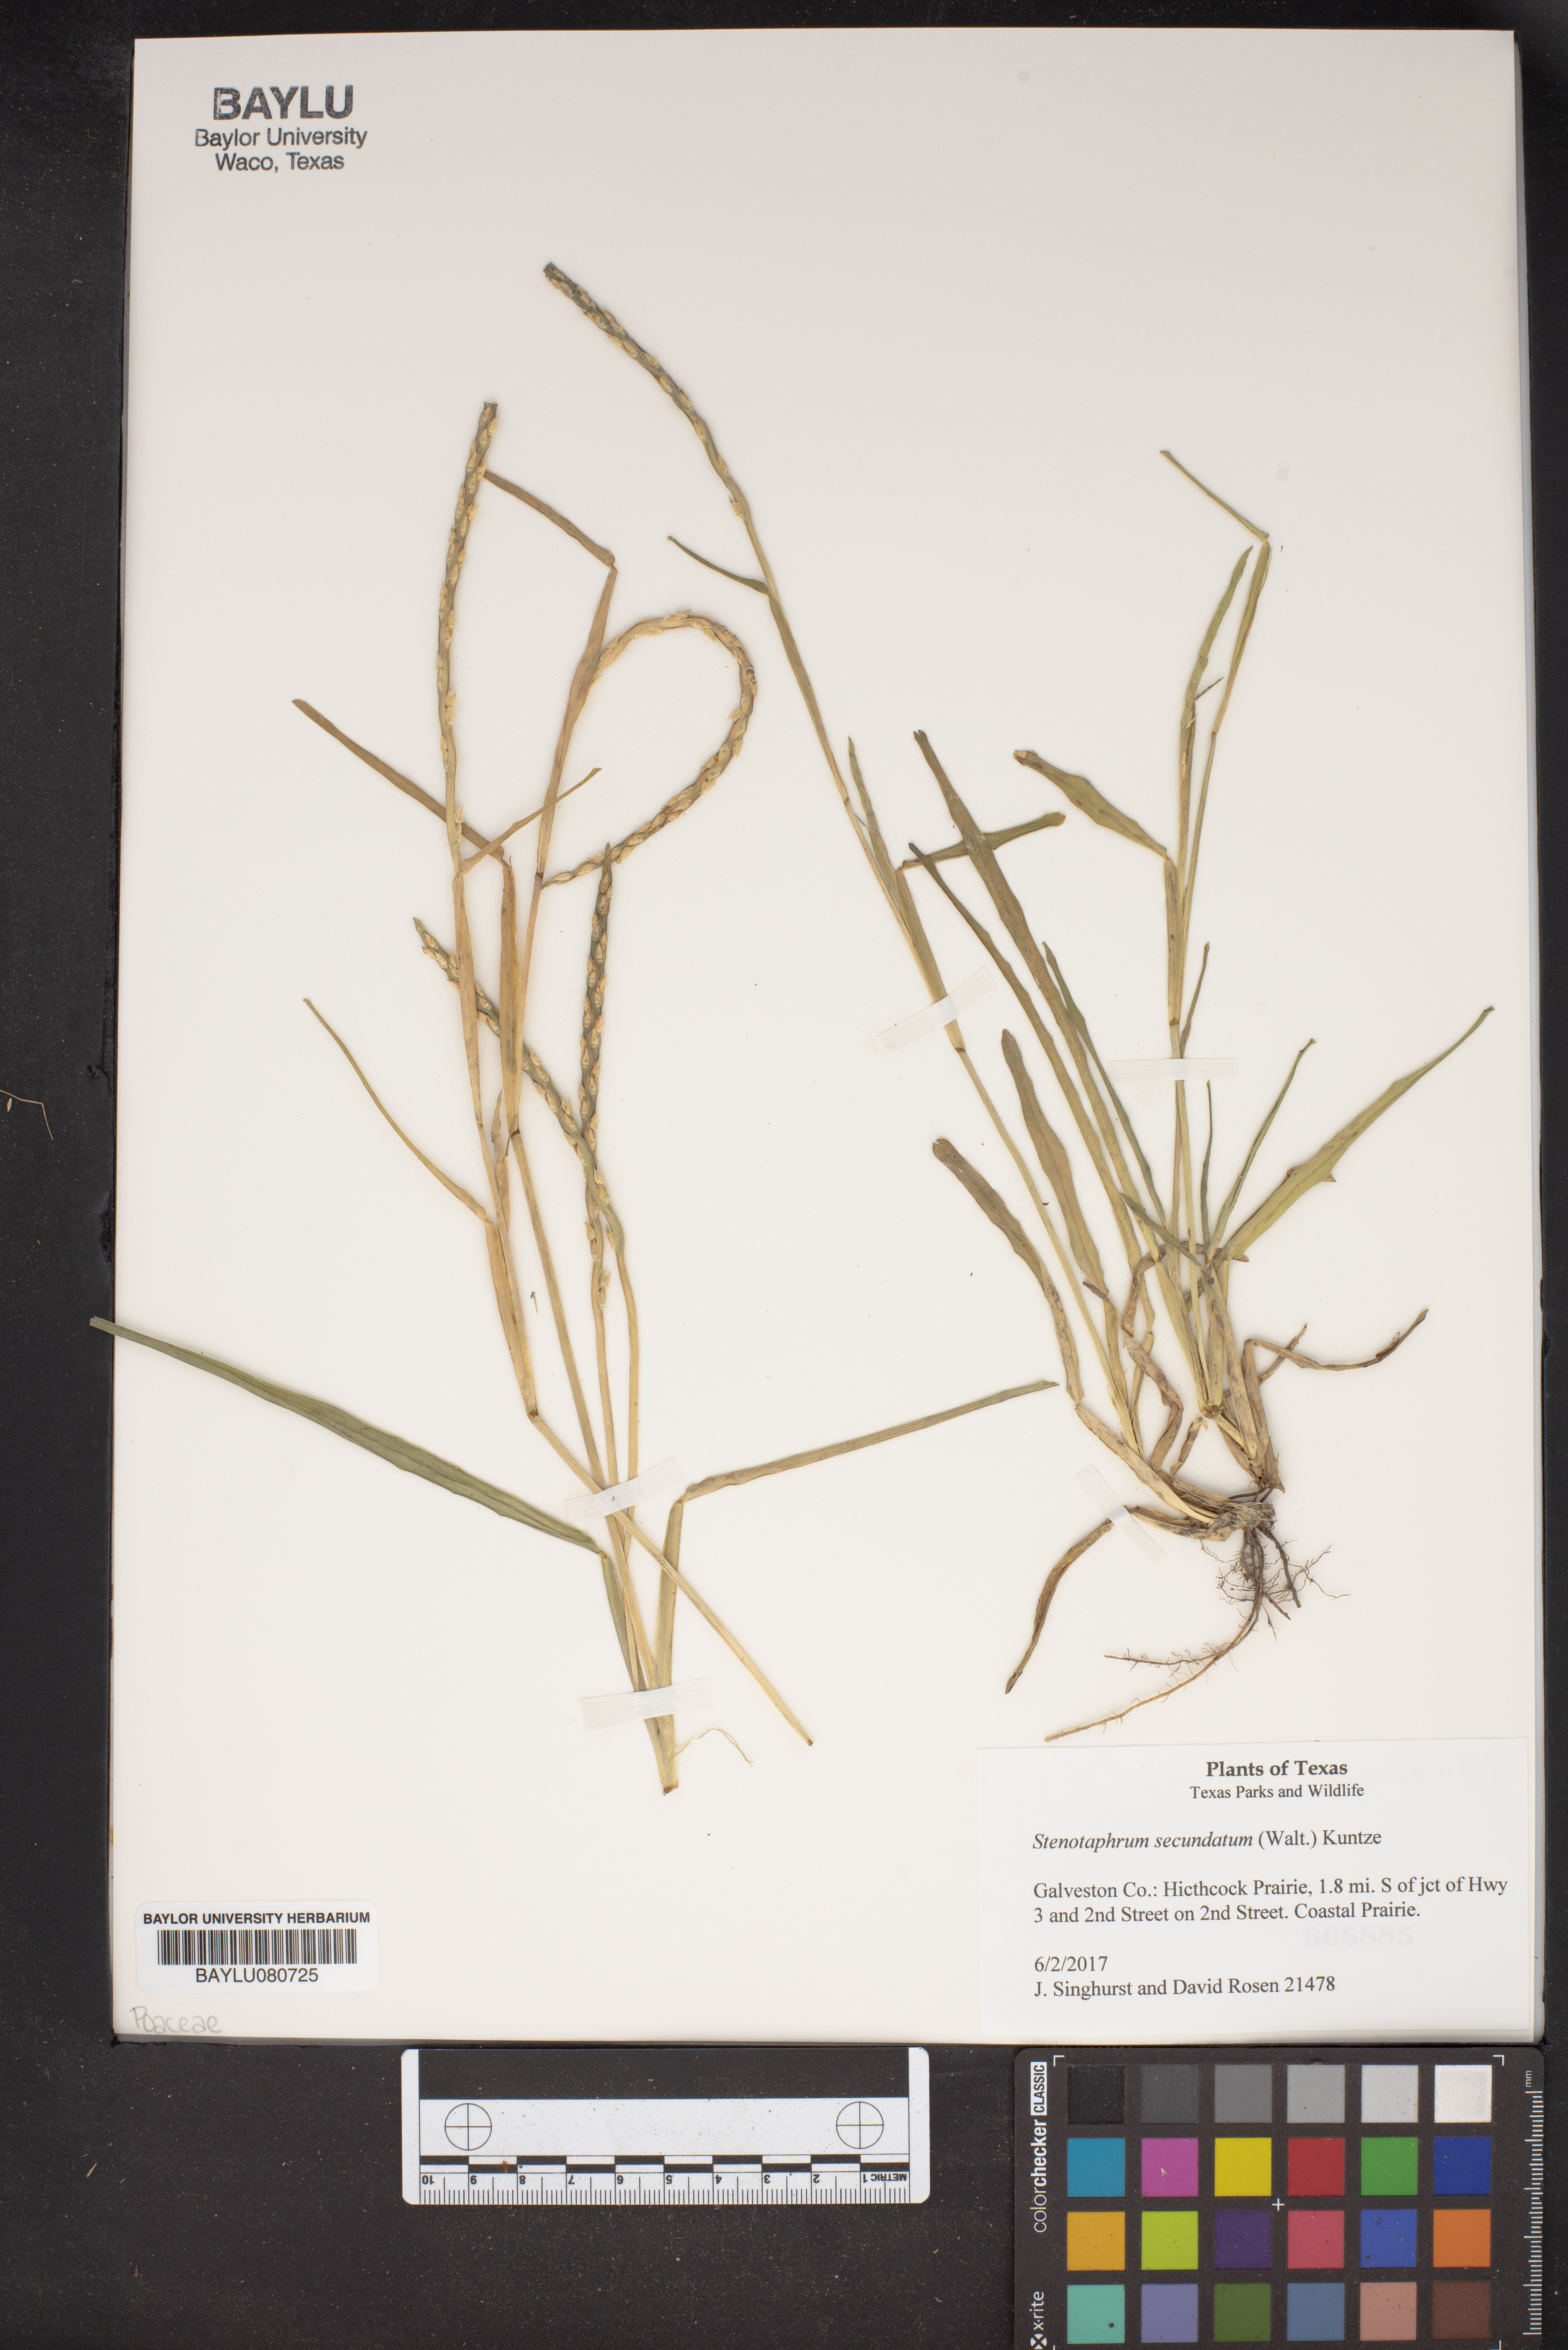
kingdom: Plantae
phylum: Tracheophyta
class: Liliopsida
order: Poales
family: Poaceae
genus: Stenotaphrum
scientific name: Stenotaphrum secundatum
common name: St. augustine grass
